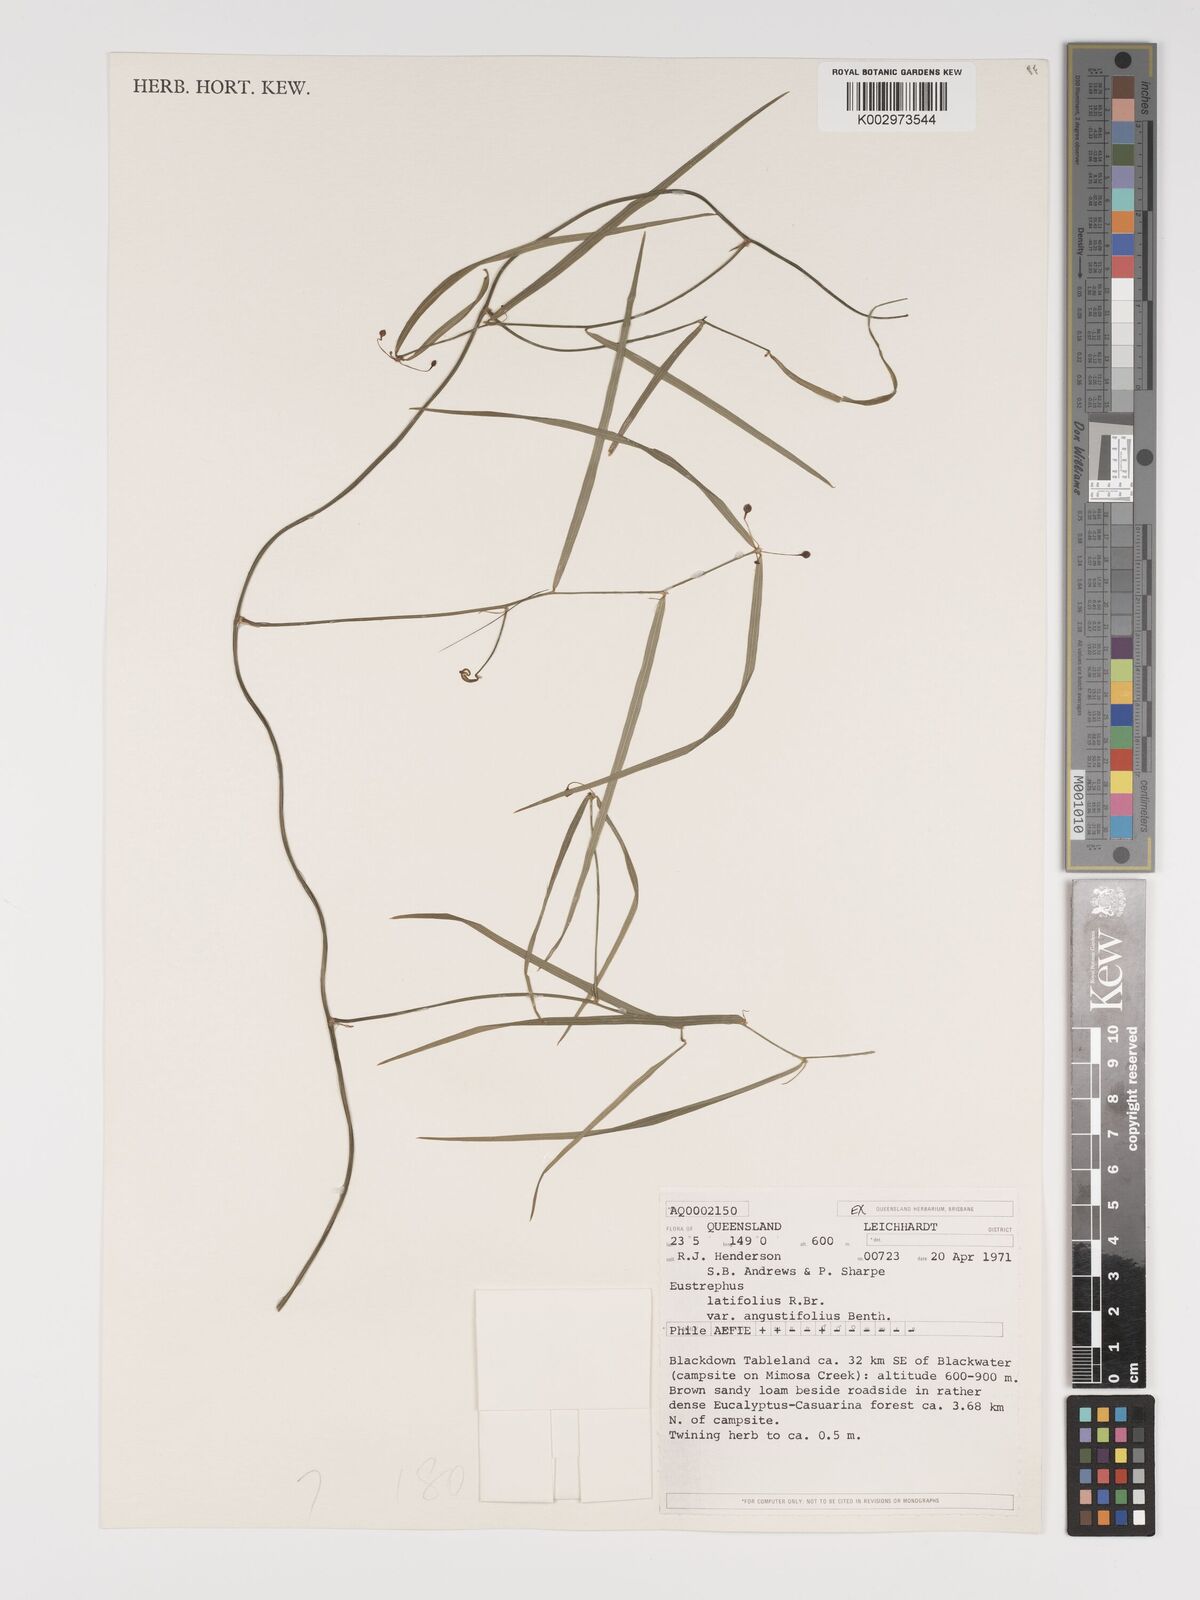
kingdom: Plantae
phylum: Tracheophyta
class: Liliopsida
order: Asparagales
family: Asparagaceae
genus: Eustrephus
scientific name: Eustrephus latifolius
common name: Orangevine
